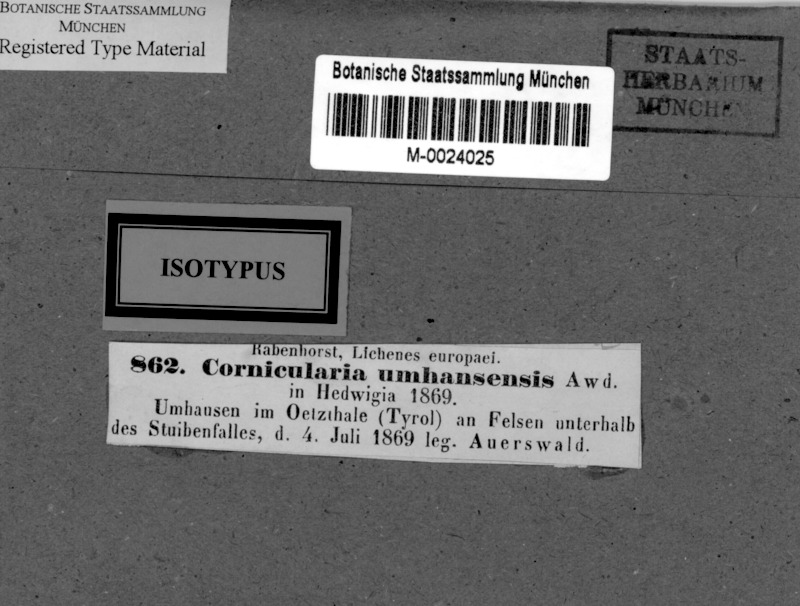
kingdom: Fungi
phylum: Ascomycota
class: Lecanoromycetes
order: Peltigerales
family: Lobariaceae
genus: Ricasolia
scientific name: Ricasolia amplissima
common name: Giant candlewax lichen
